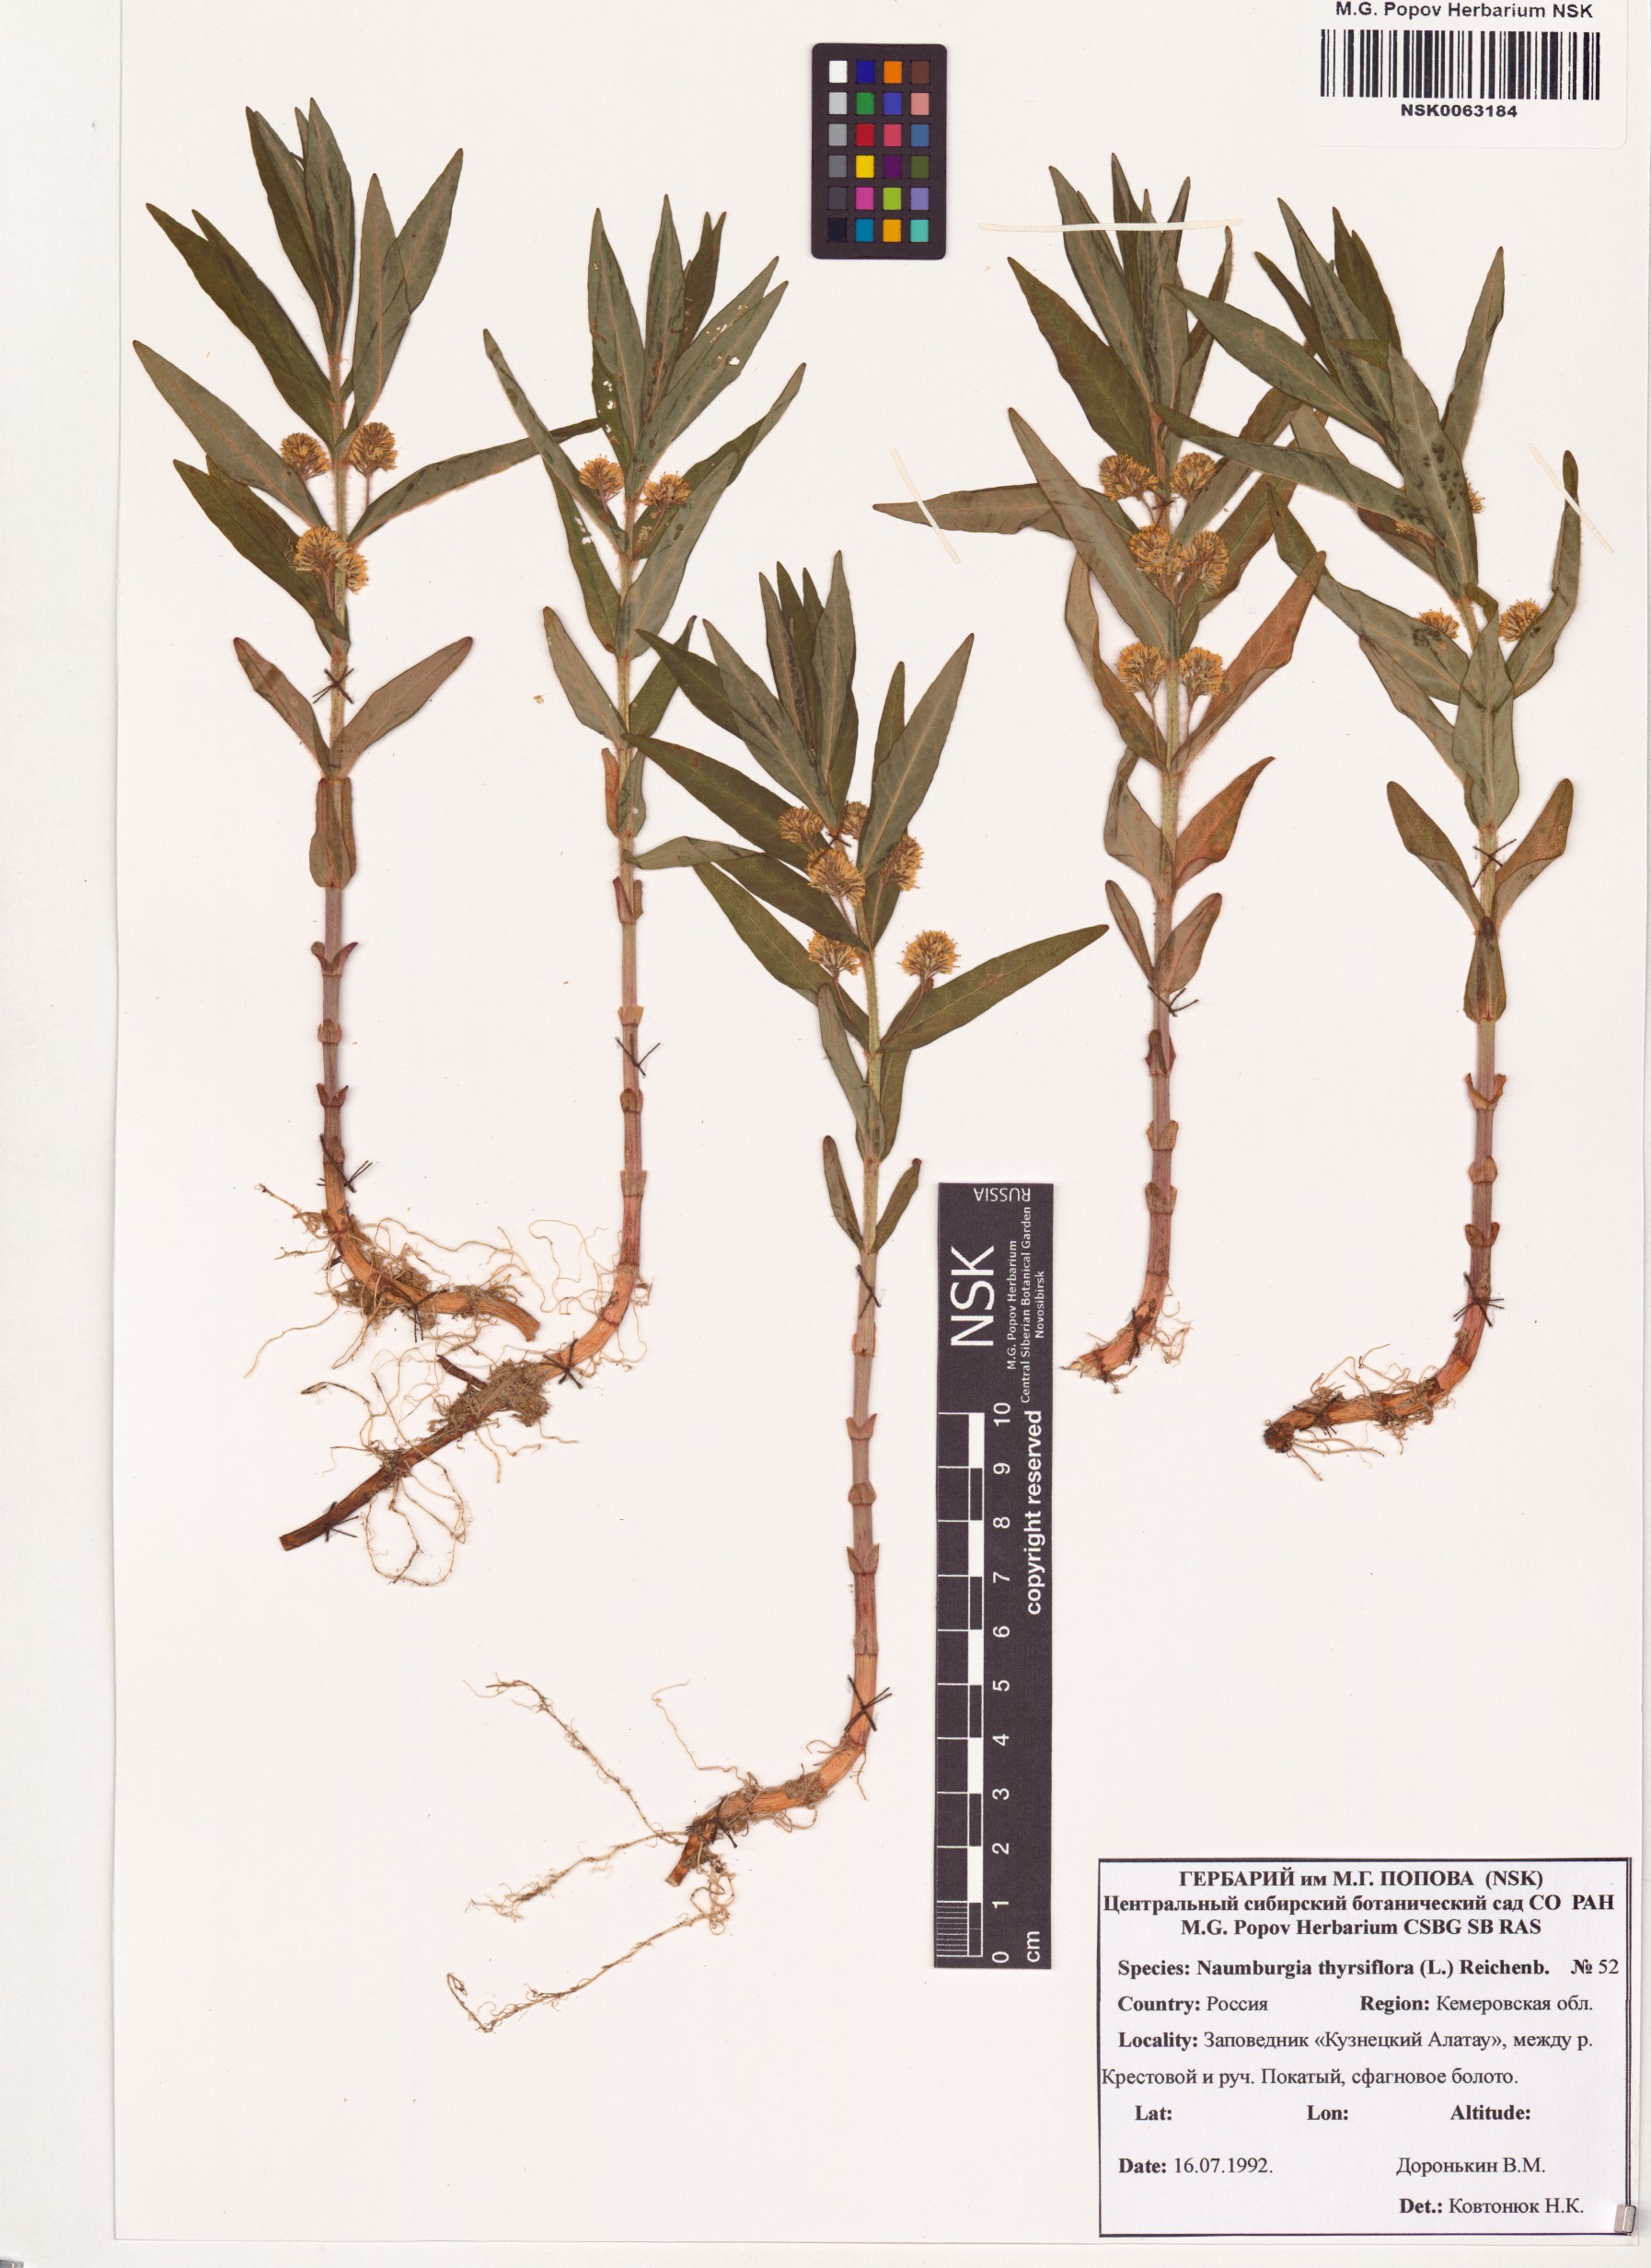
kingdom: Plantae
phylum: Tracheophyta
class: Magnoliopsida
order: Ericales
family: Primulaceae
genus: Lysimachia
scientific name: Lysimachia thyrsiflora
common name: Tufted loosestrife
